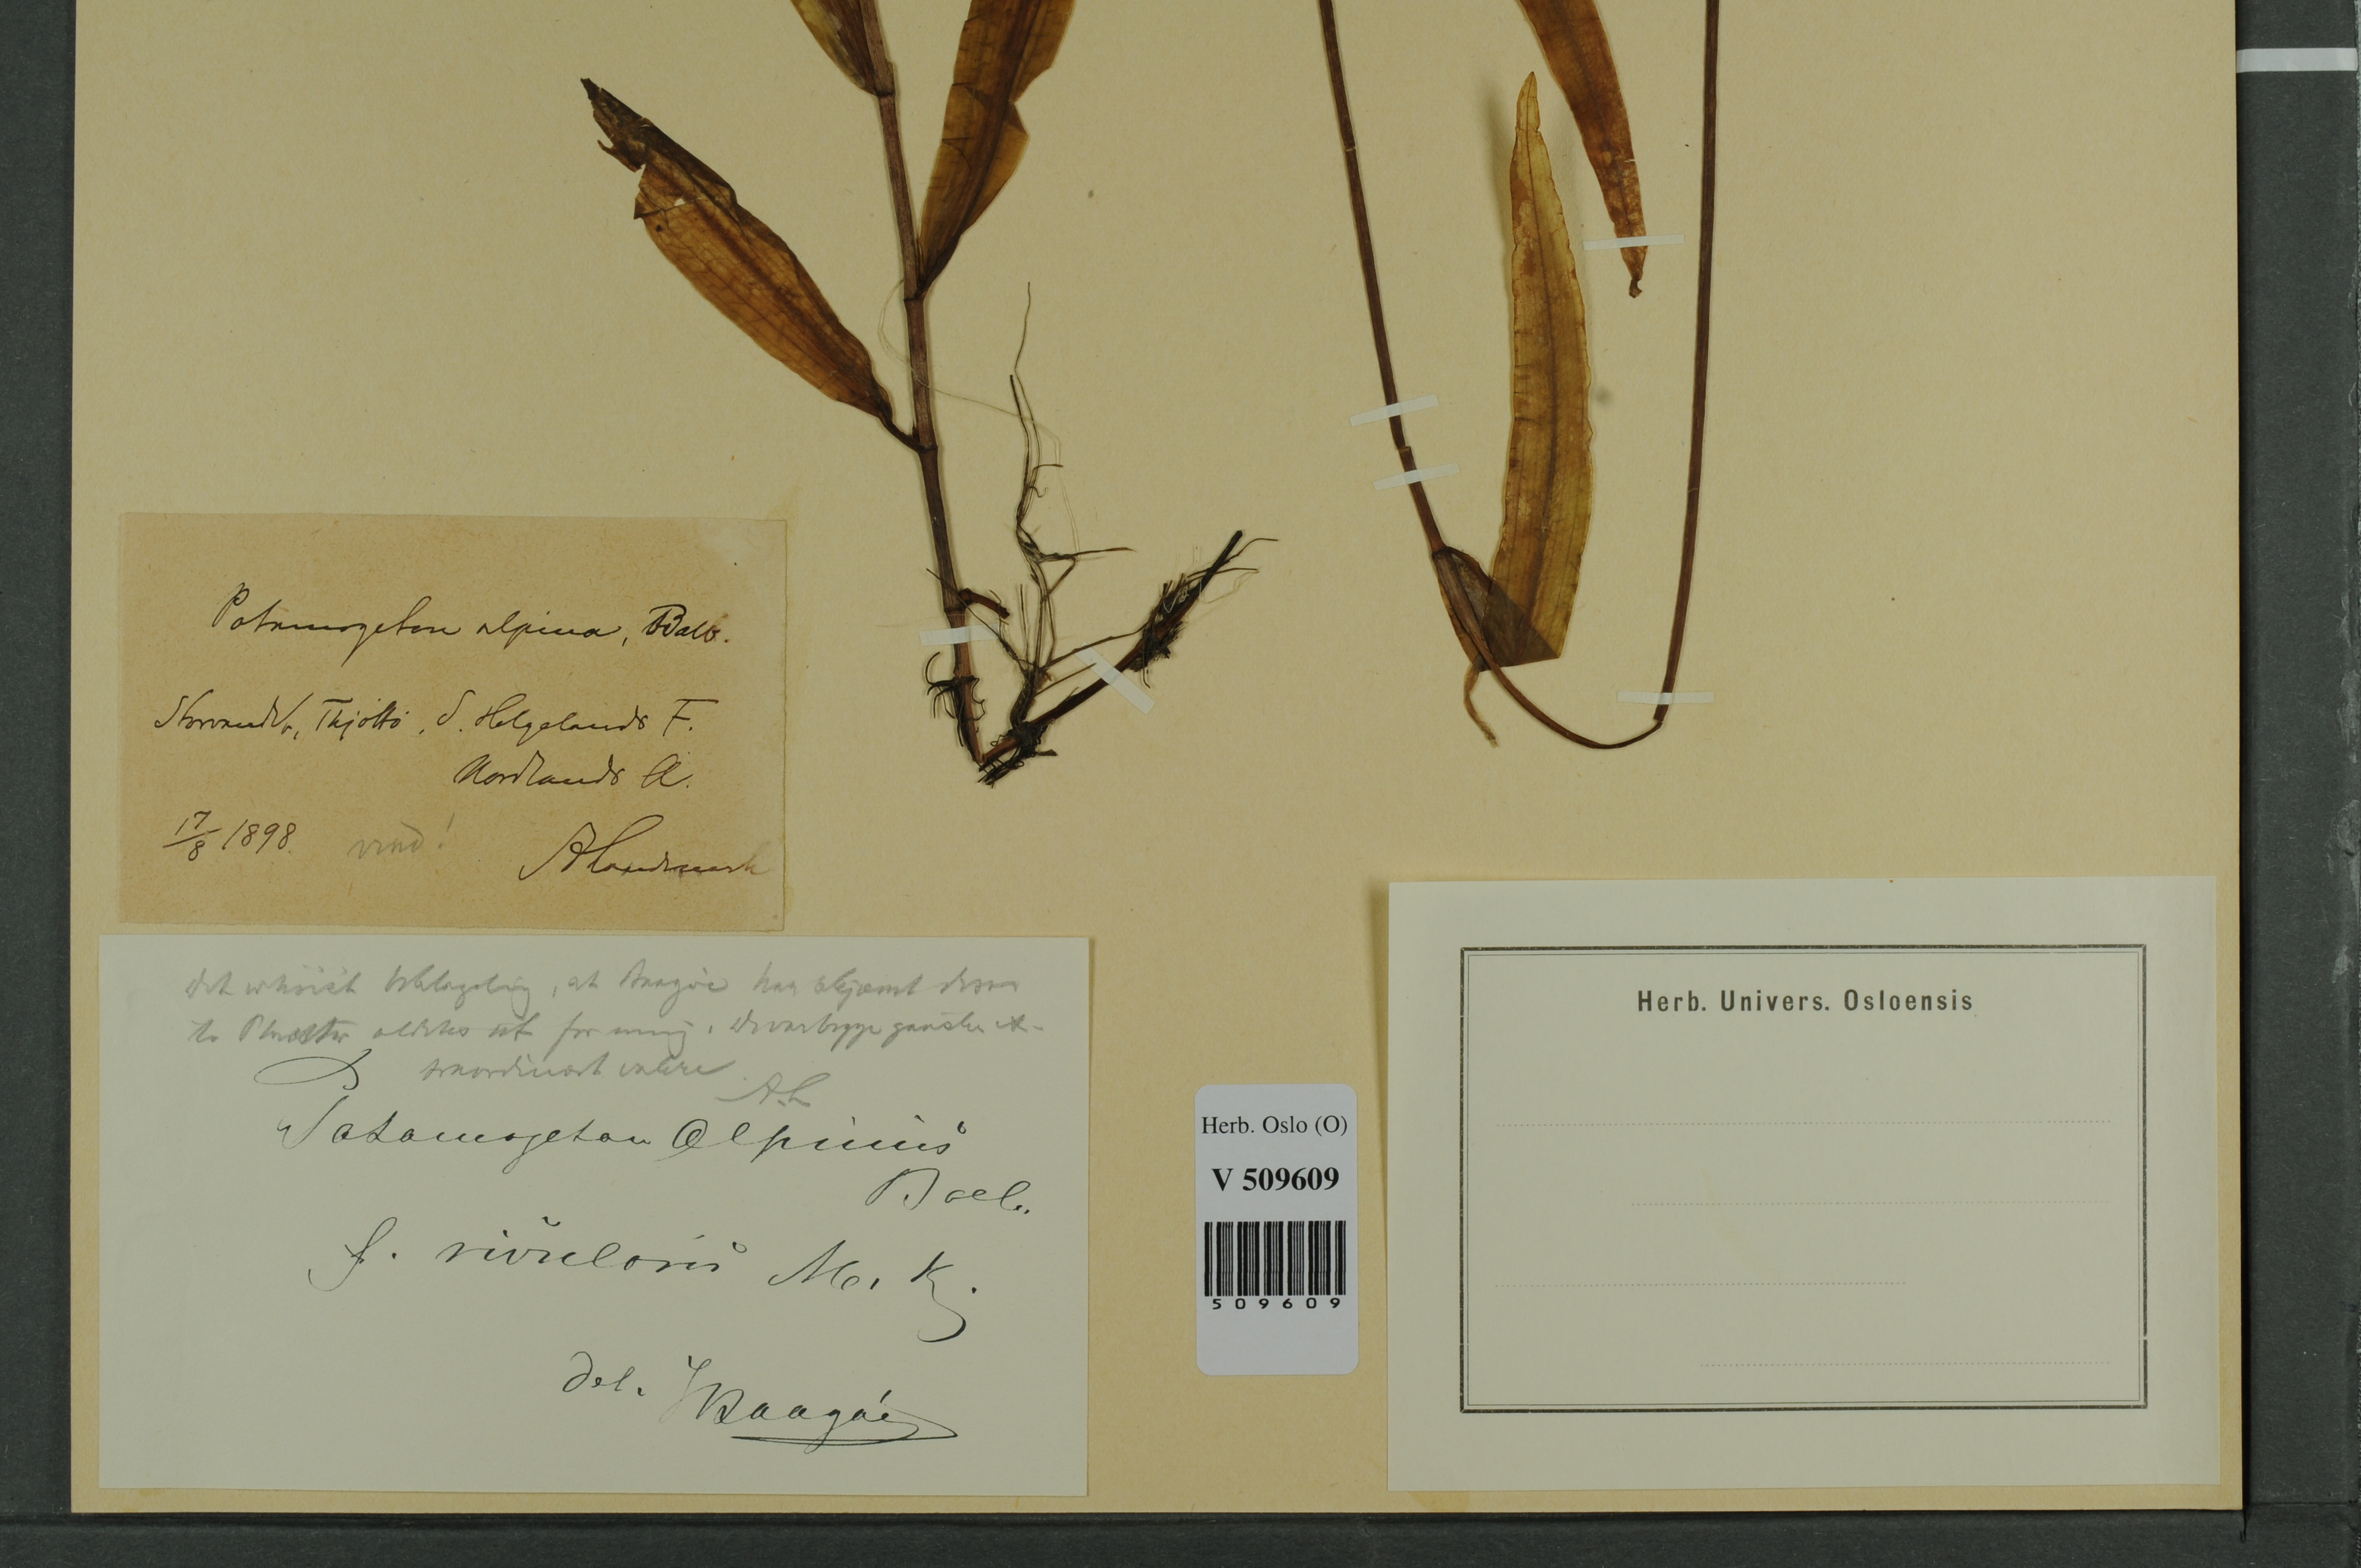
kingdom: Plantae
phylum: Tracheophyta
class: Liliopsida
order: Alismatales
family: Potamogetonaceae
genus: Potamogeton
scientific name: Potamogeton alpinus
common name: Red pondweed
